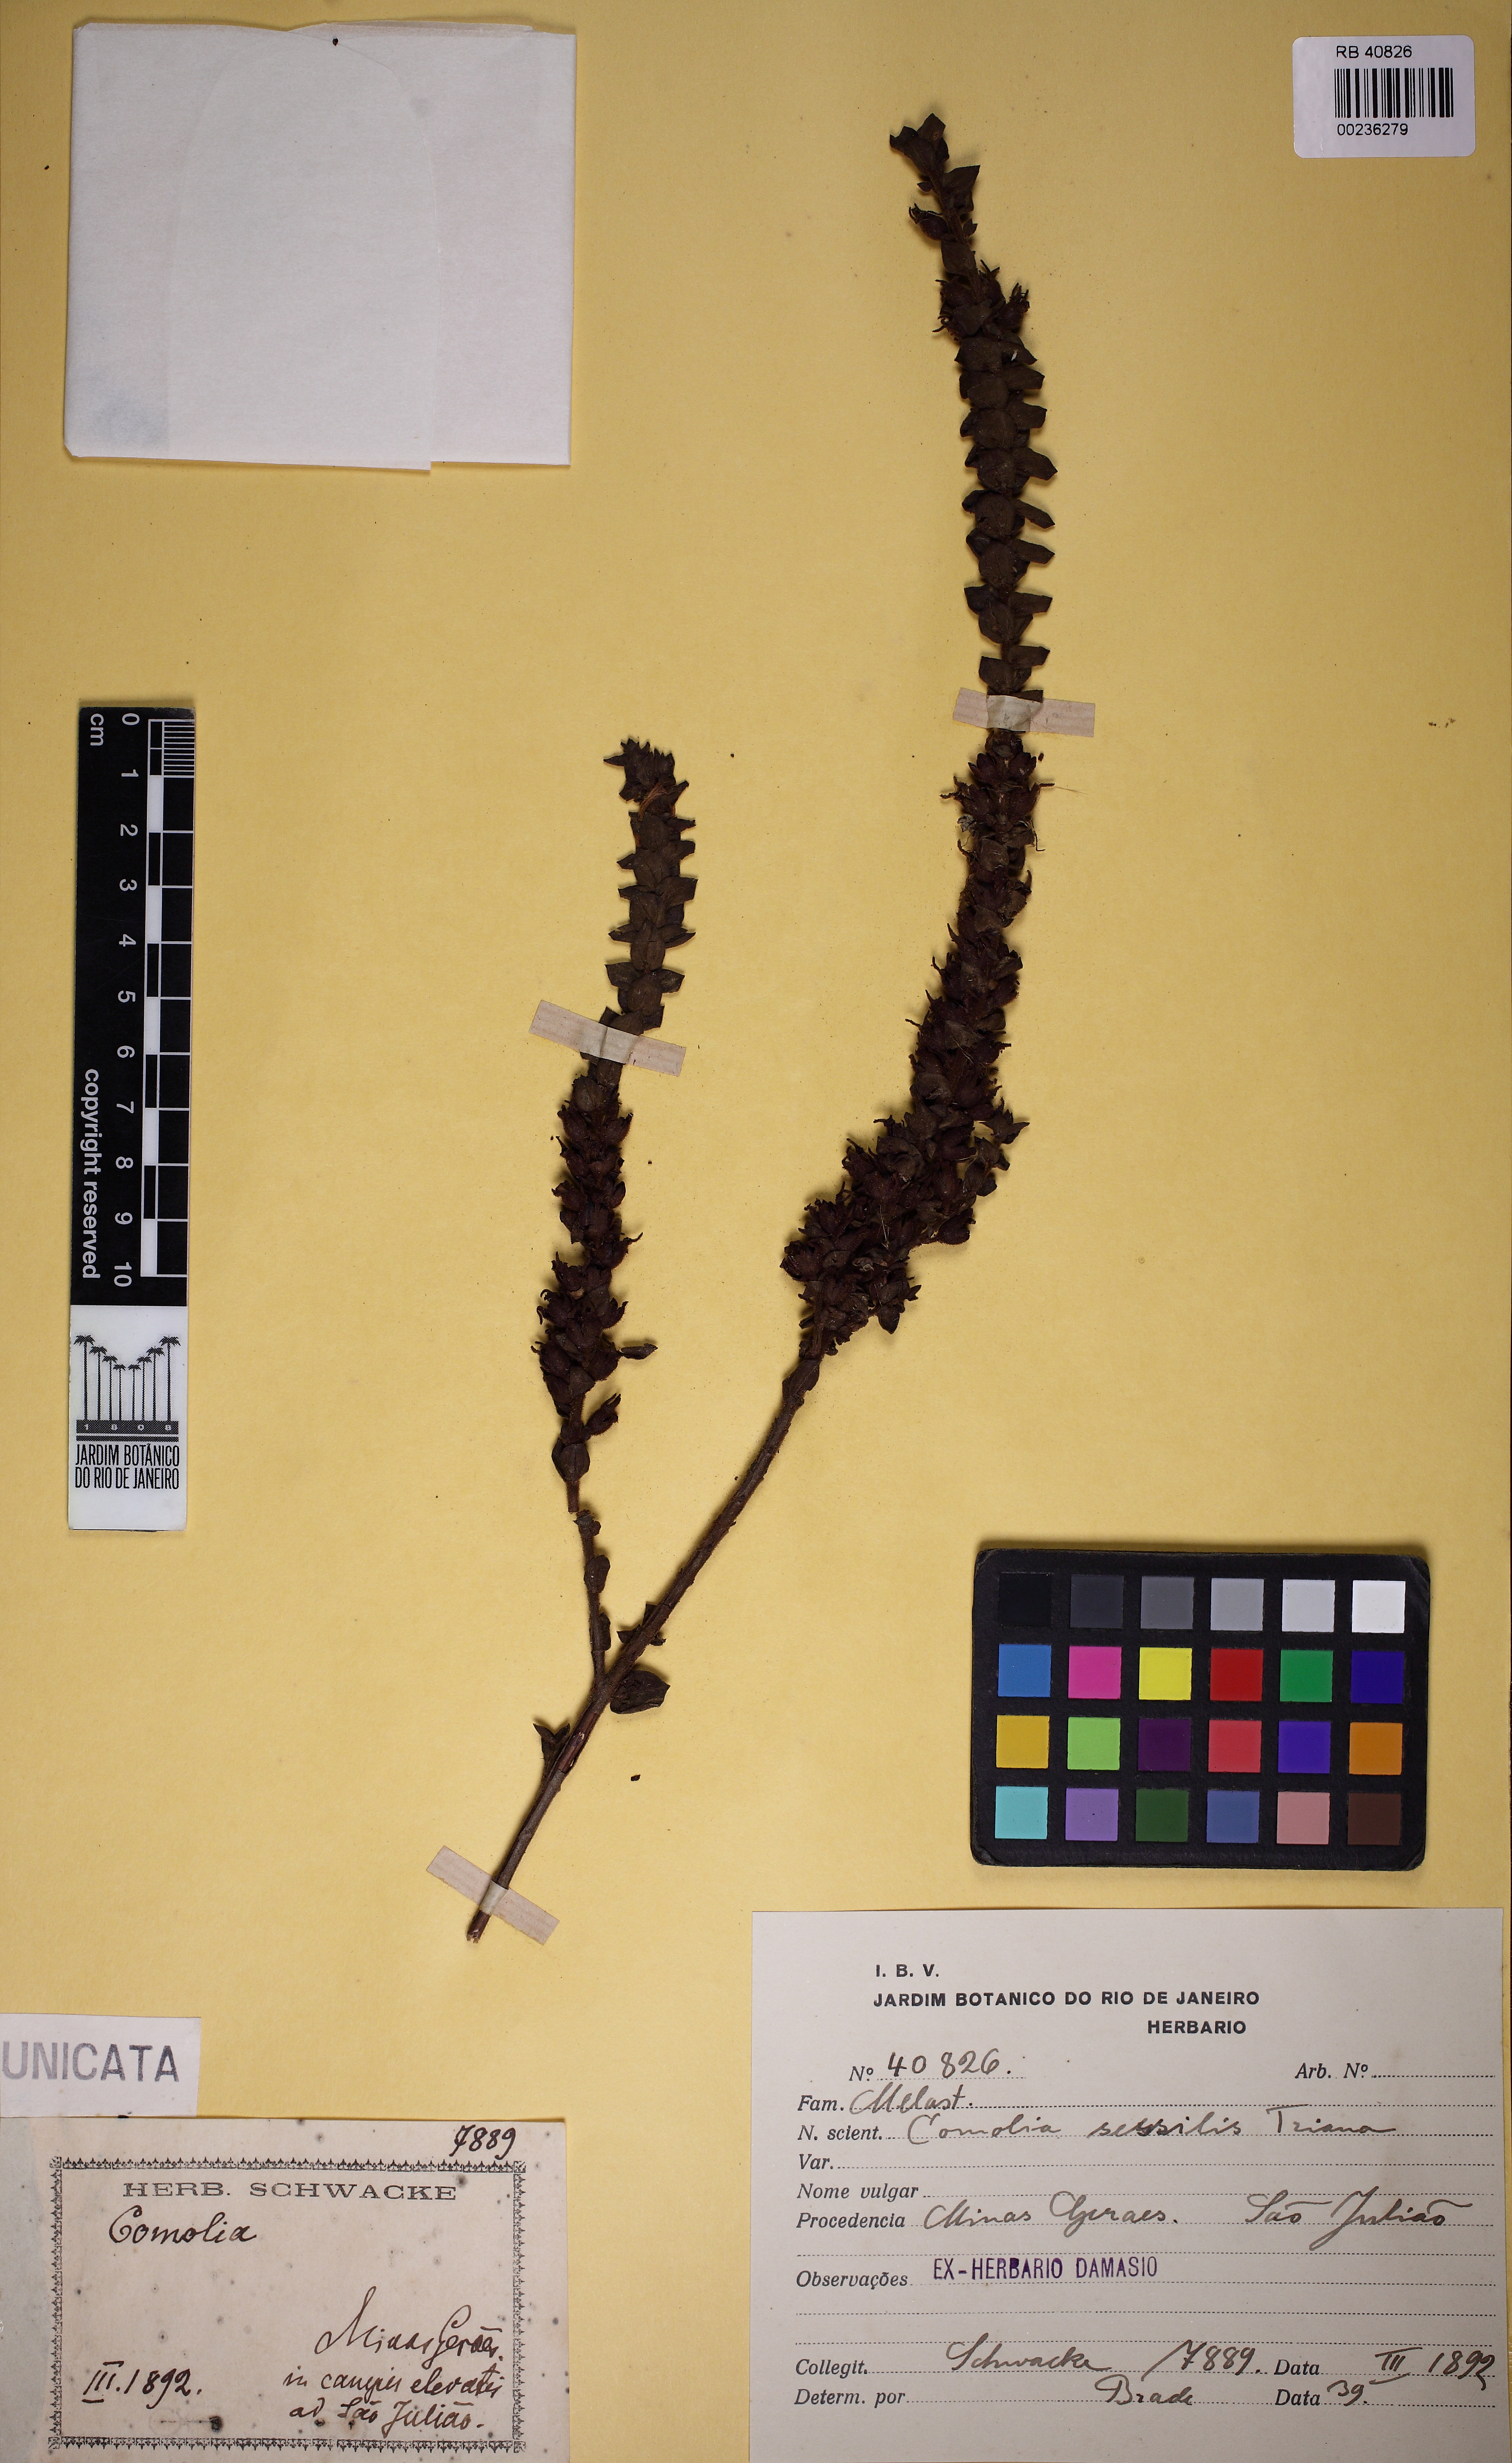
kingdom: Plantae
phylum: Tracheophyta
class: Magnoliopsida
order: Myrtales
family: Melastomataceae
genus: Fritzschia
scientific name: Fritzschia sessilis
